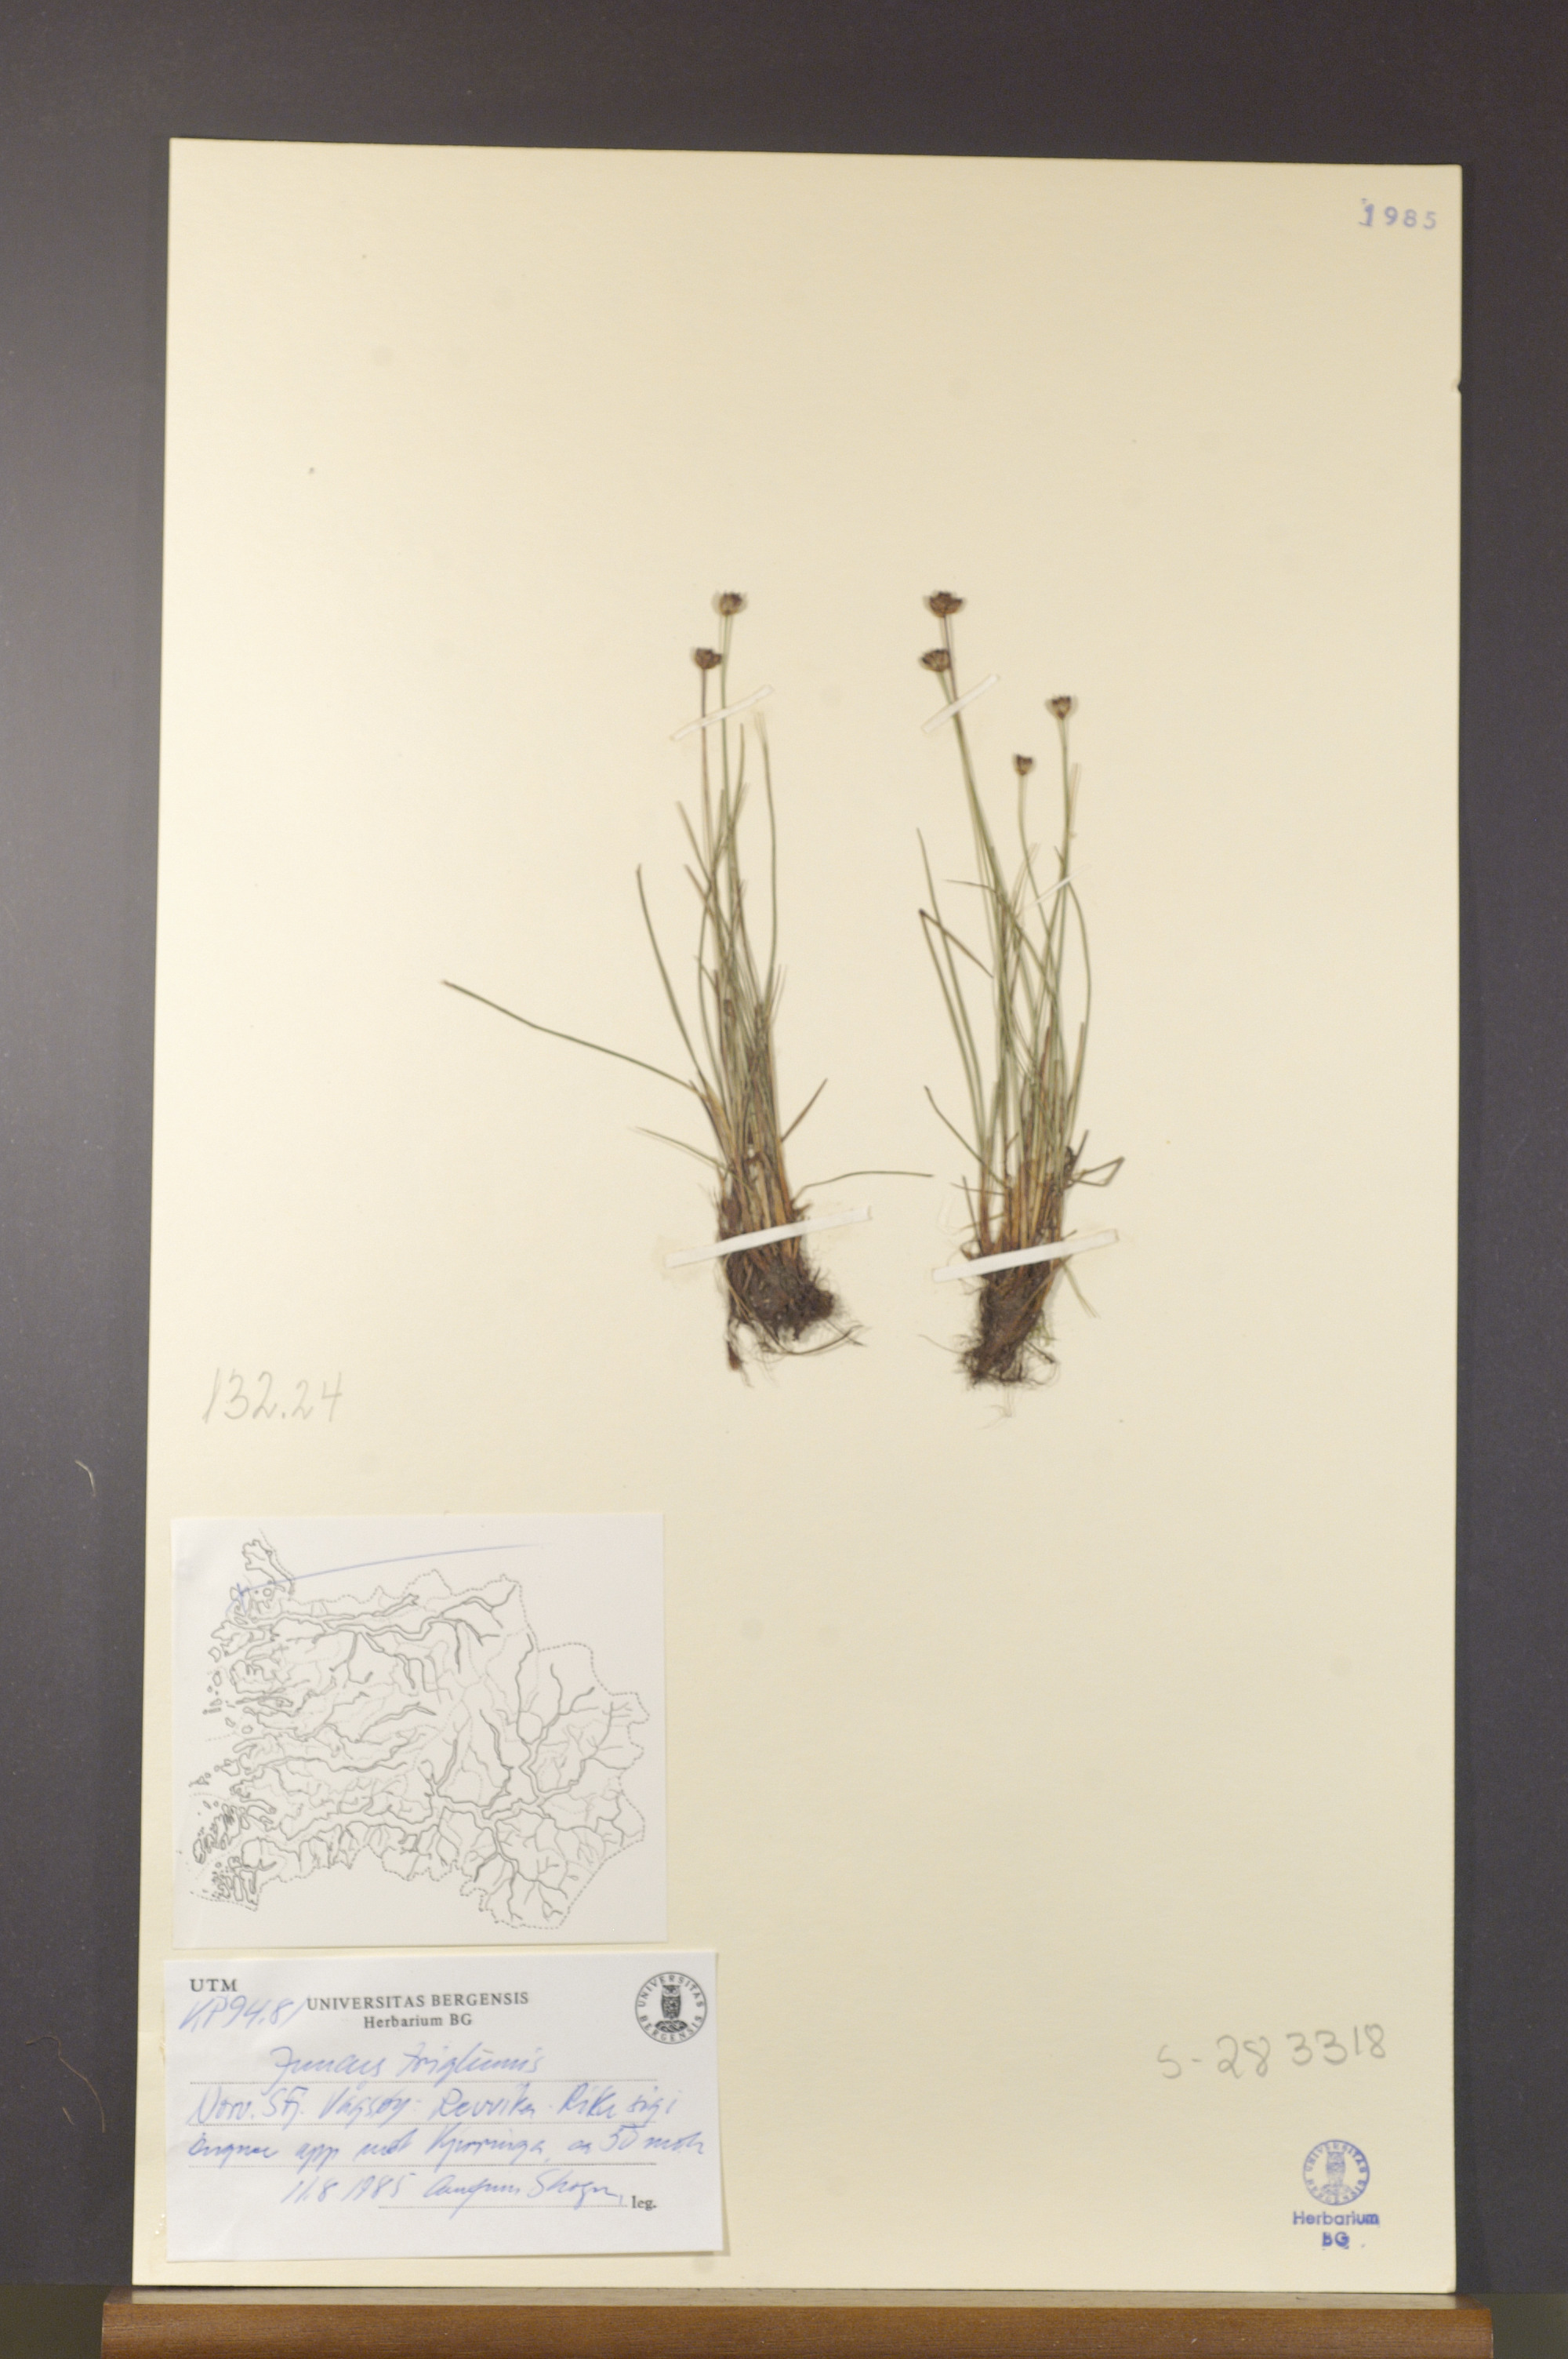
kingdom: Plantae
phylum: Tracheophyta
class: Liliopsida
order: Poales
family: Juncaceae
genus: Juncus
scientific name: Juncus triglumis
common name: Three-flowered rush
